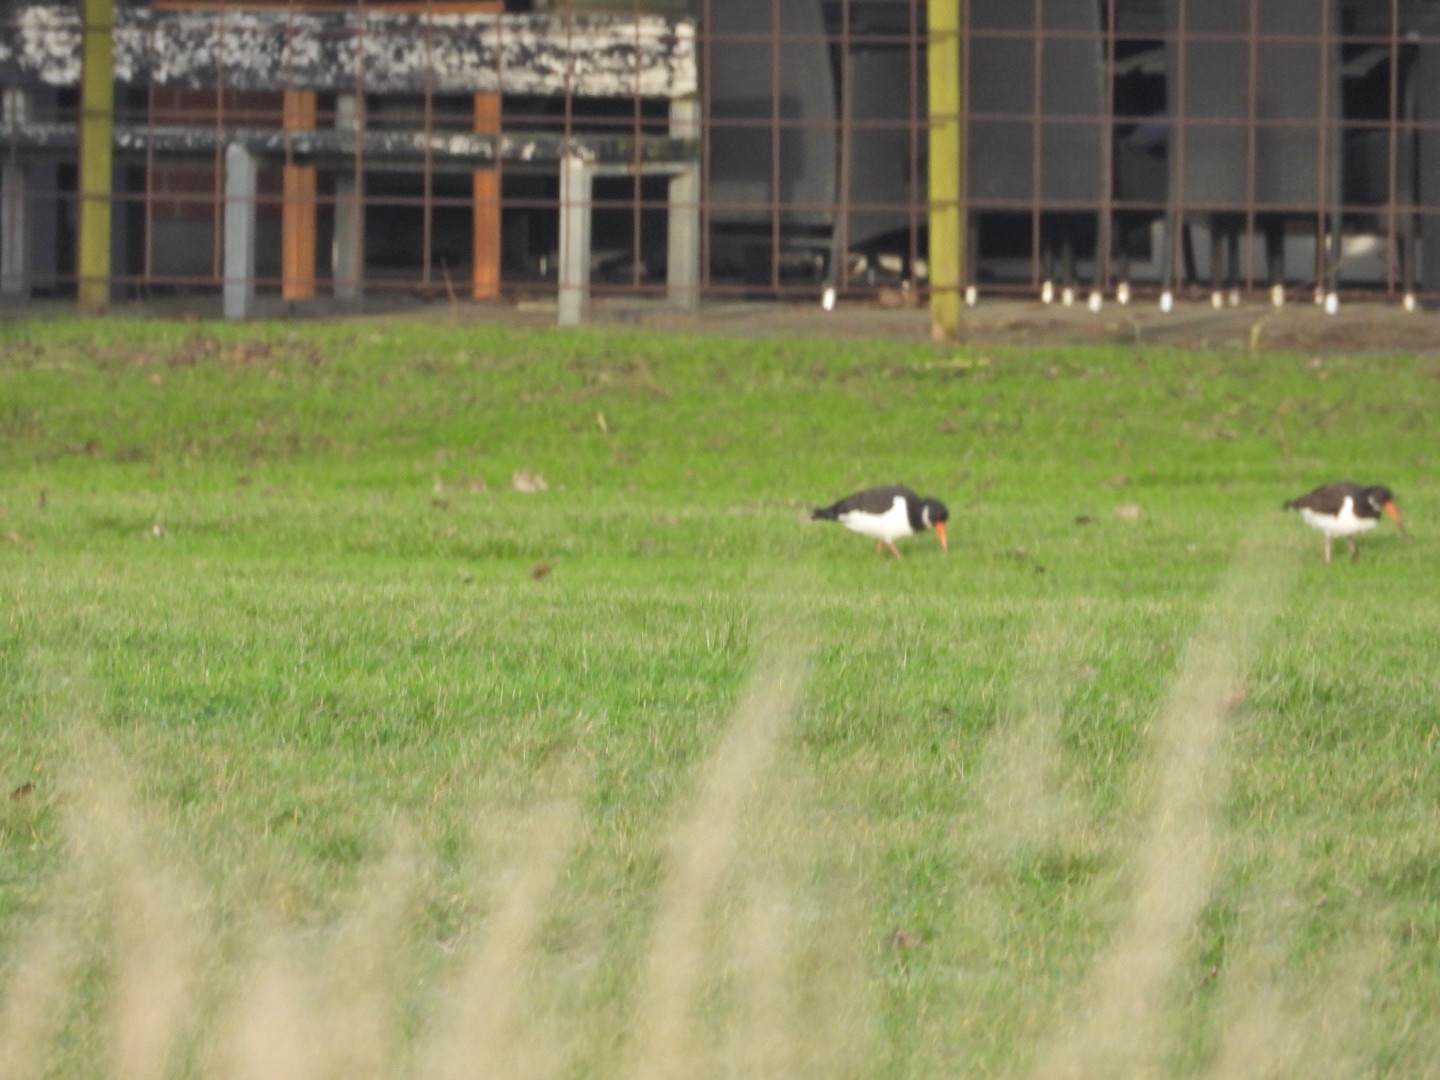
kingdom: Animalia
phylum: Chordata
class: Aves
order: Charadriiformes
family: Haematopodidae
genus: Haematopus
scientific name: Haematopus ostralegus
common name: Strandskade
